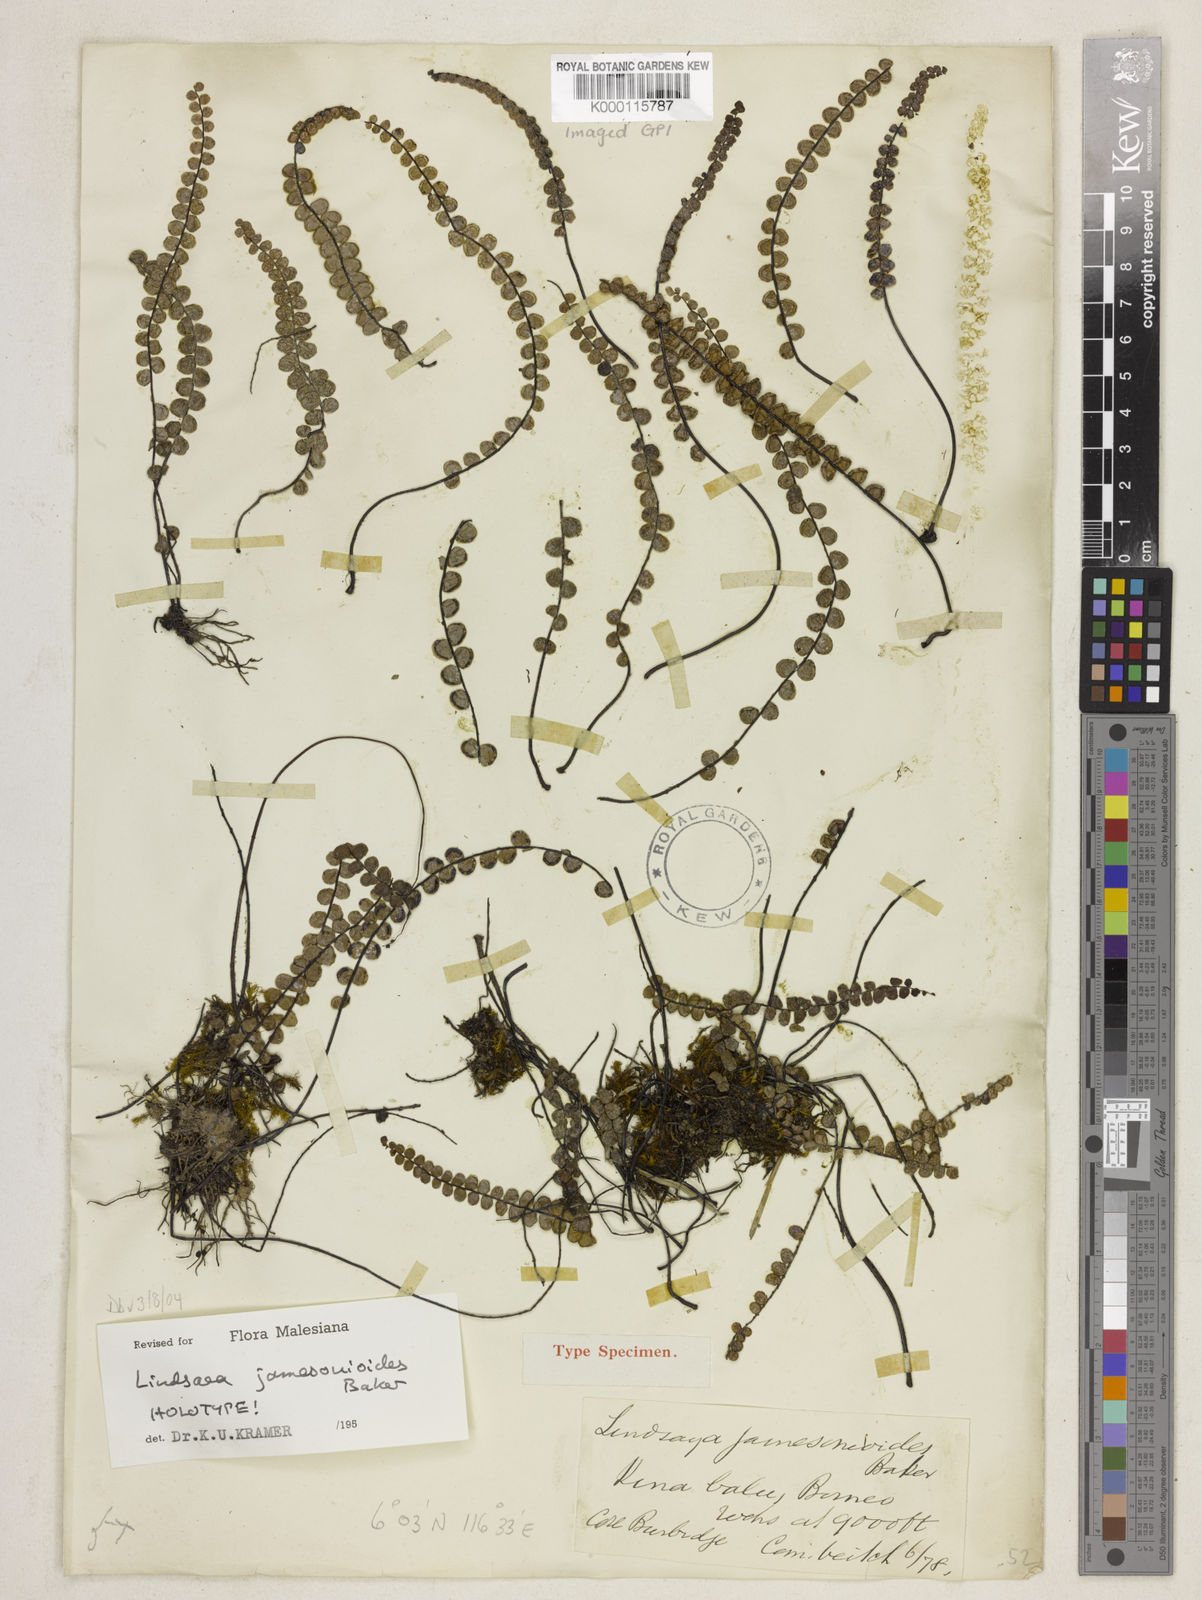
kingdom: Plantae
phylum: Tracheophyta
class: Polypodiopsida
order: Polypodiales
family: Lindsaeaceae
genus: Lindsaea
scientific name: Lindsaea jamesonioides
